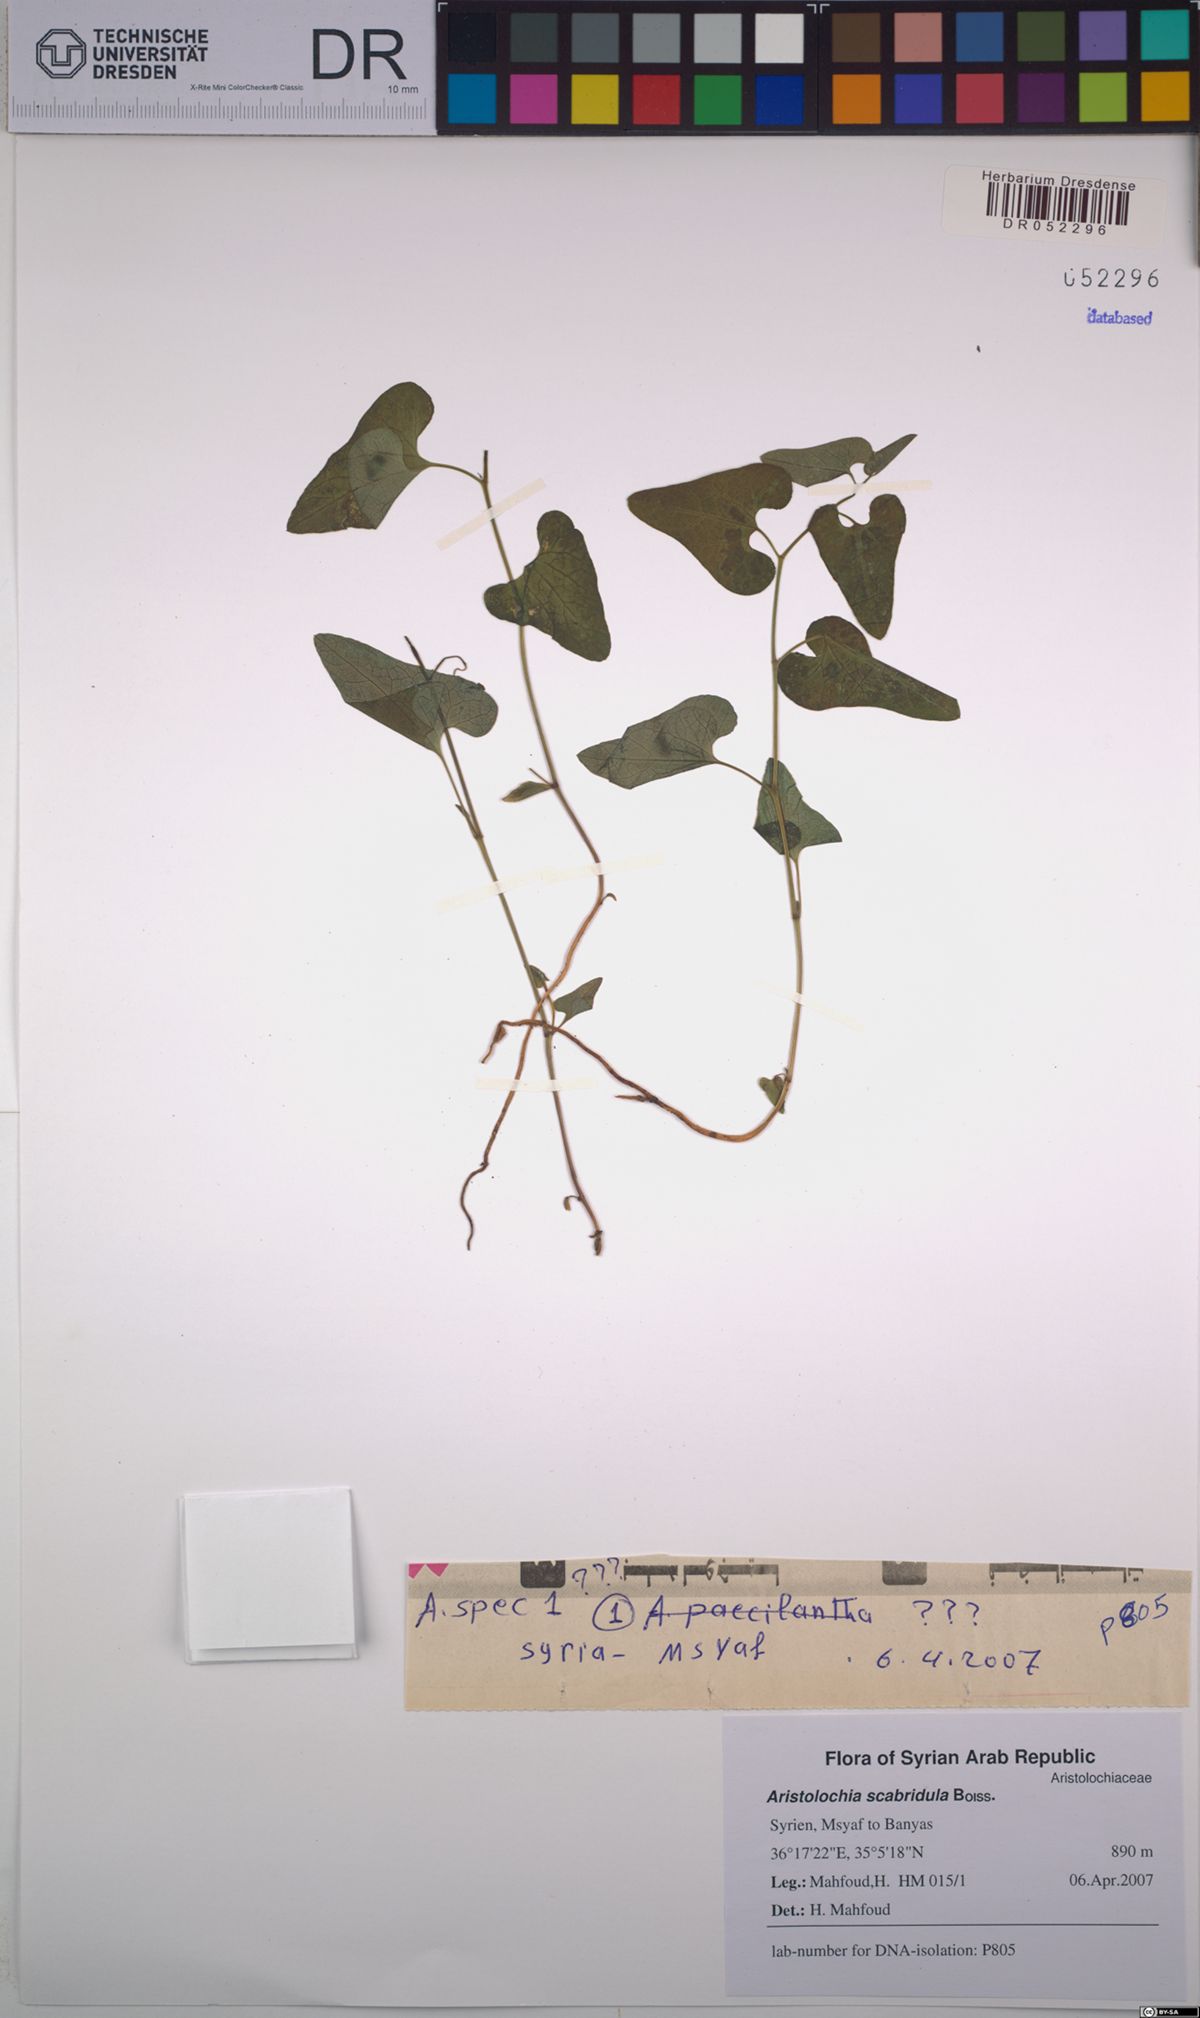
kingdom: Plantae
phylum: Tracheophyta
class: Magnoliopsida
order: Piperales
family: Aristolochiaceae
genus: Aristolochia
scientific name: Aristolochia paecilantha
